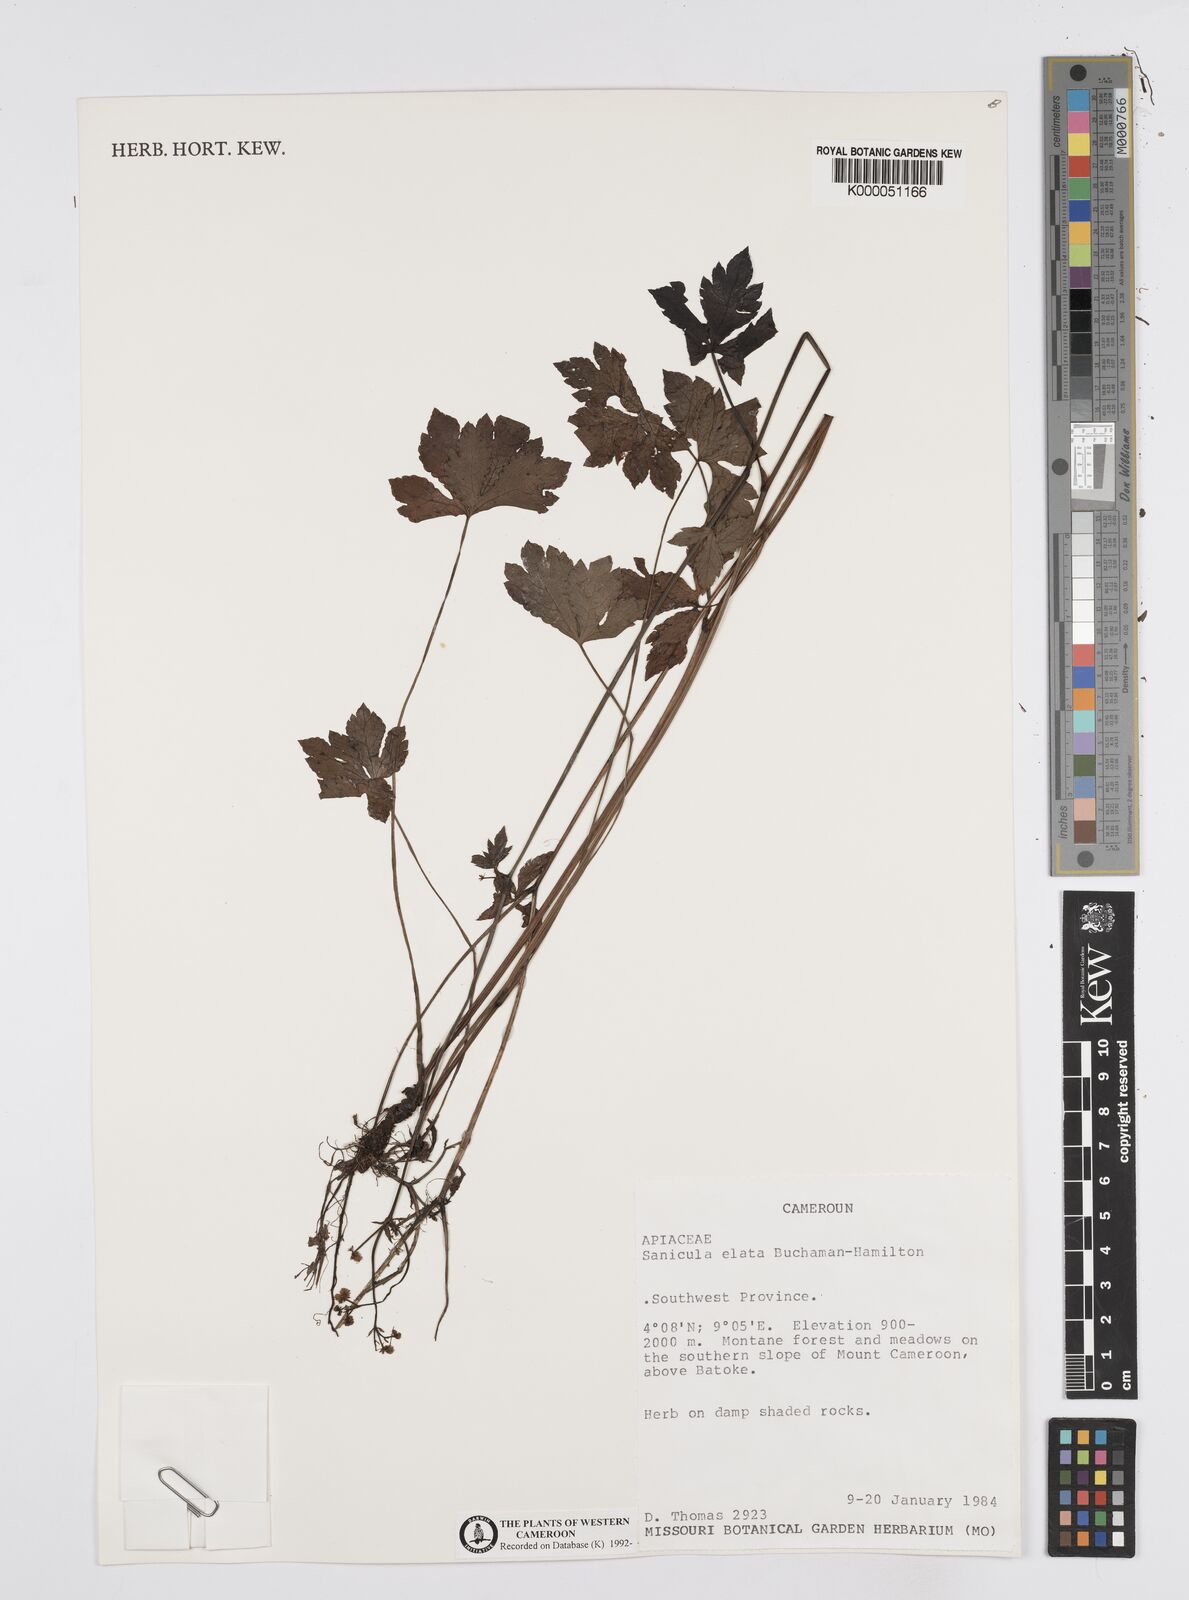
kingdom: Plantae
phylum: Tracheophyta
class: Magnoliopsida
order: Apiales
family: Apiaceae
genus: Sanicula
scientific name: Sanicula
